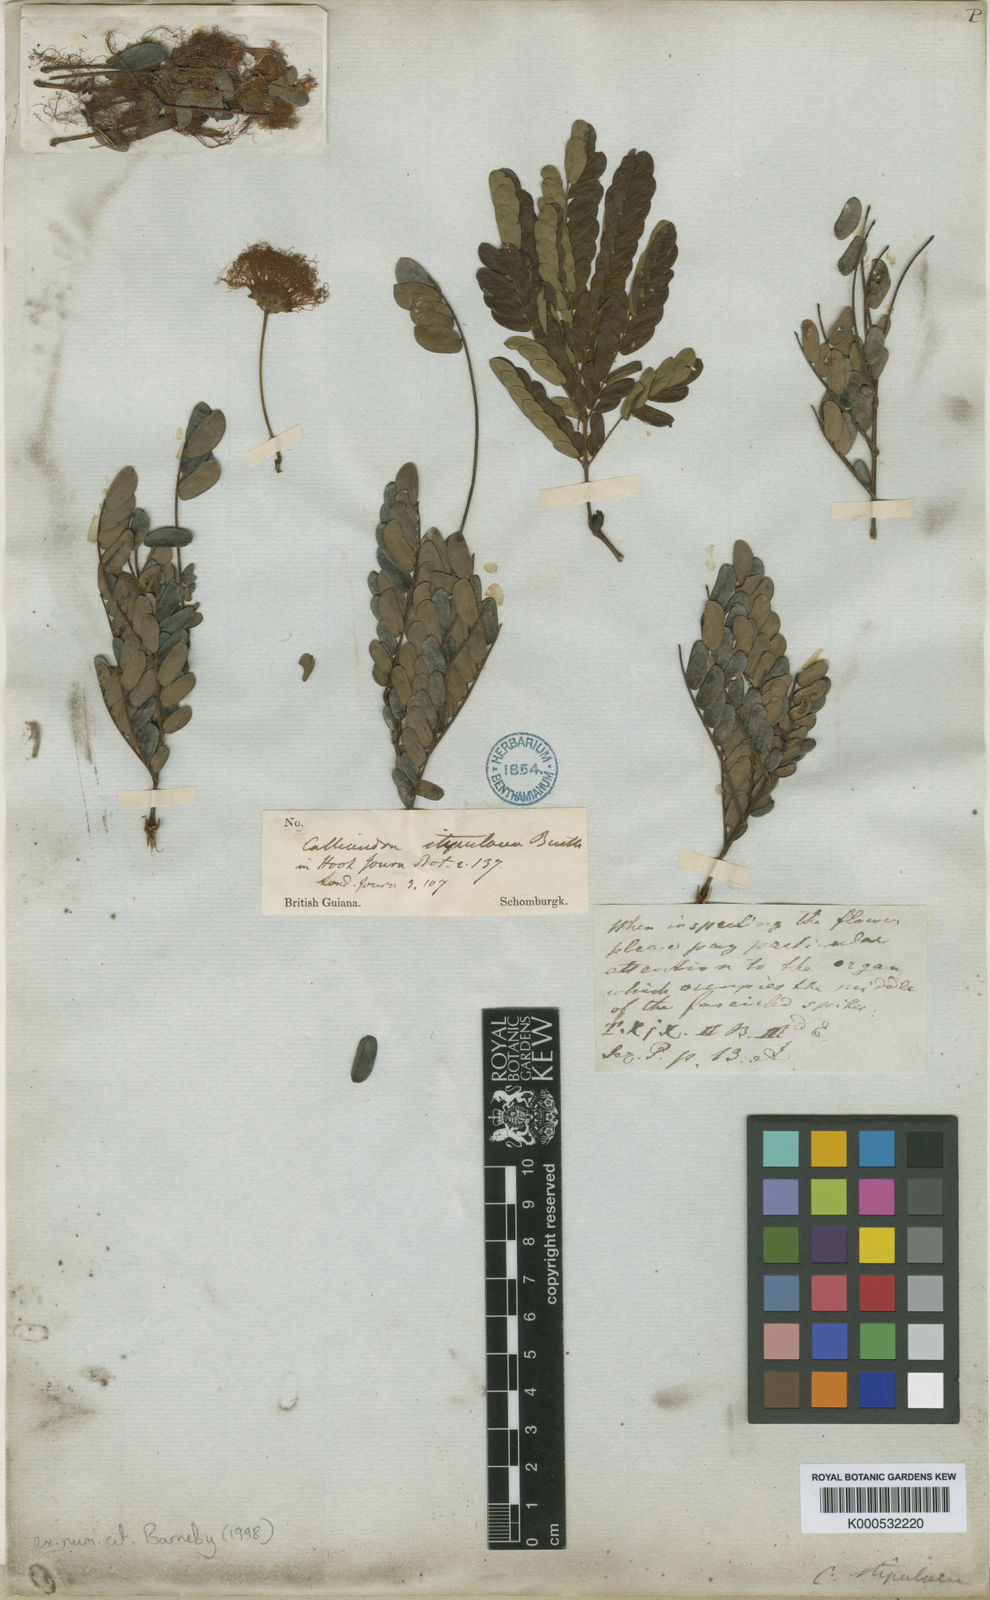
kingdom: Plantae
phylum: Tracheophyta
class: Magnoliopsida
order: Fabales
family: Fabaceae
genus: Calliandra
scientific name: Calliandra laxa
